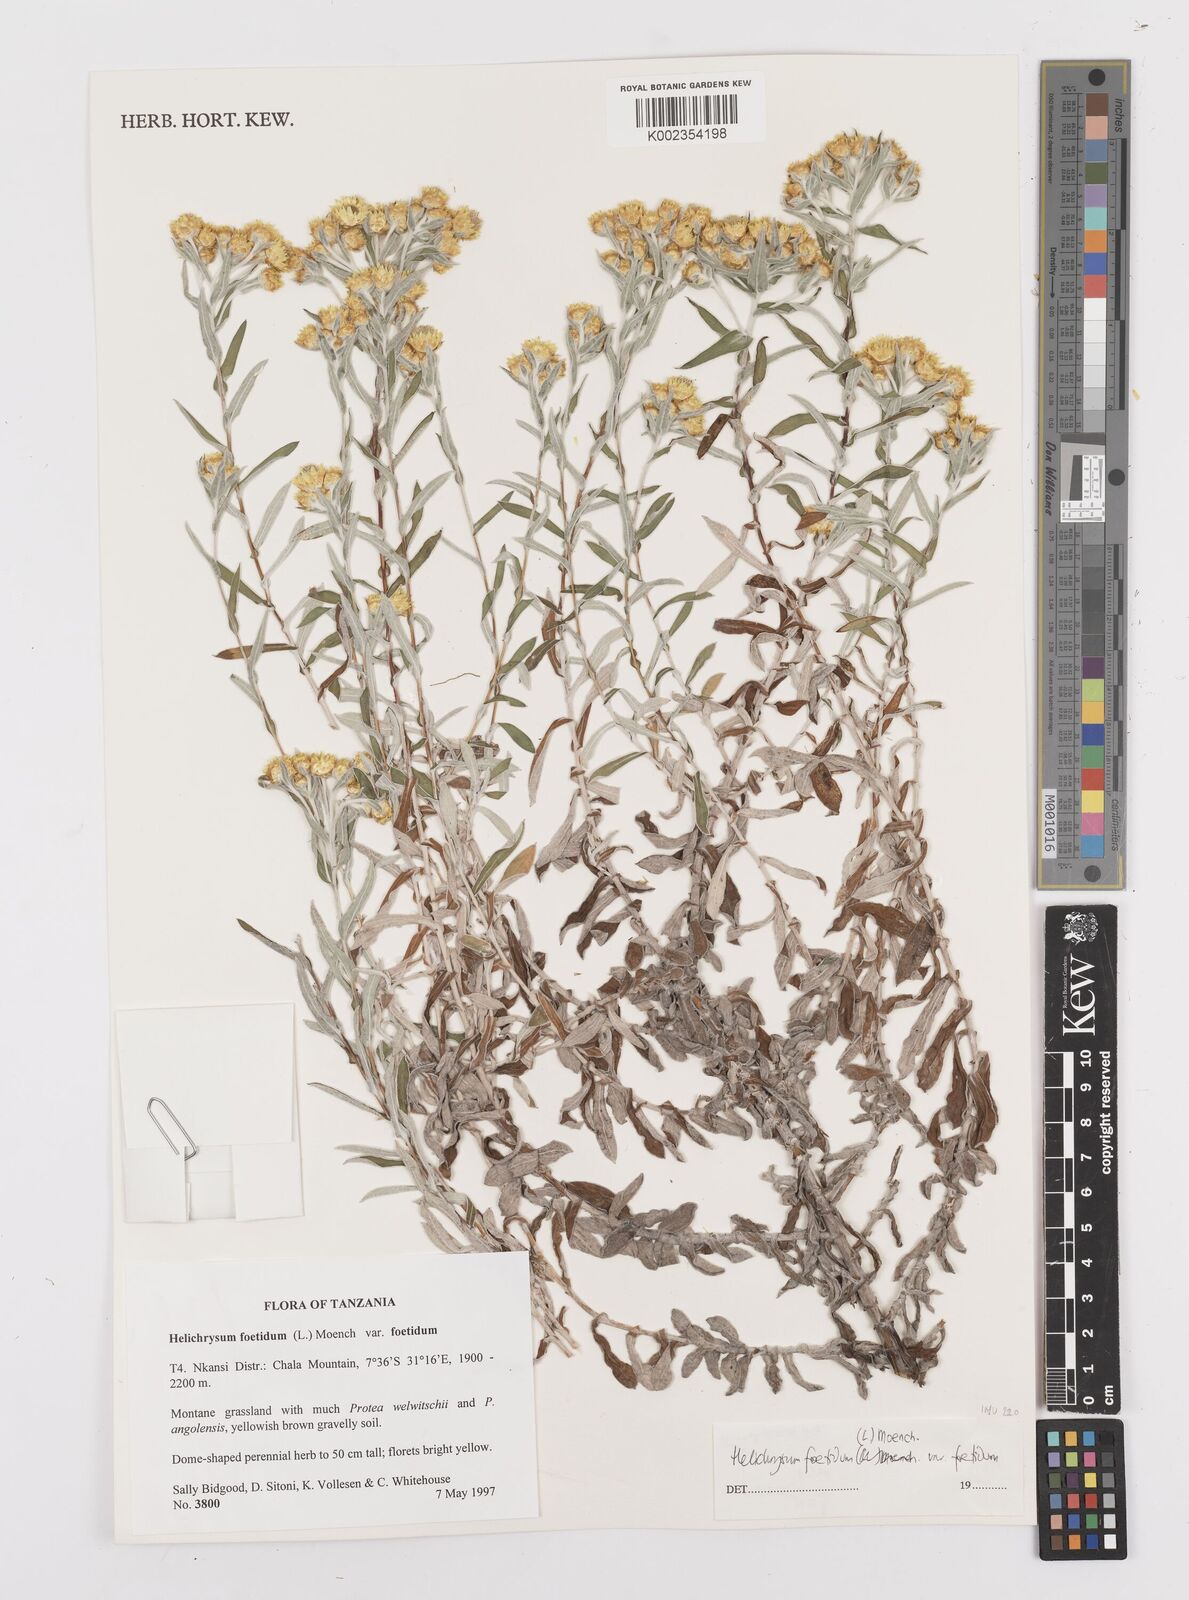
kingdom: Plantae
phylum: Tracheophyta
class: Magnoliopsida
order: Asterales
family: Asteraceae
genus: Helichrysum
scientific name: Helichrysum foetidum
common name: Stinking everlasting
